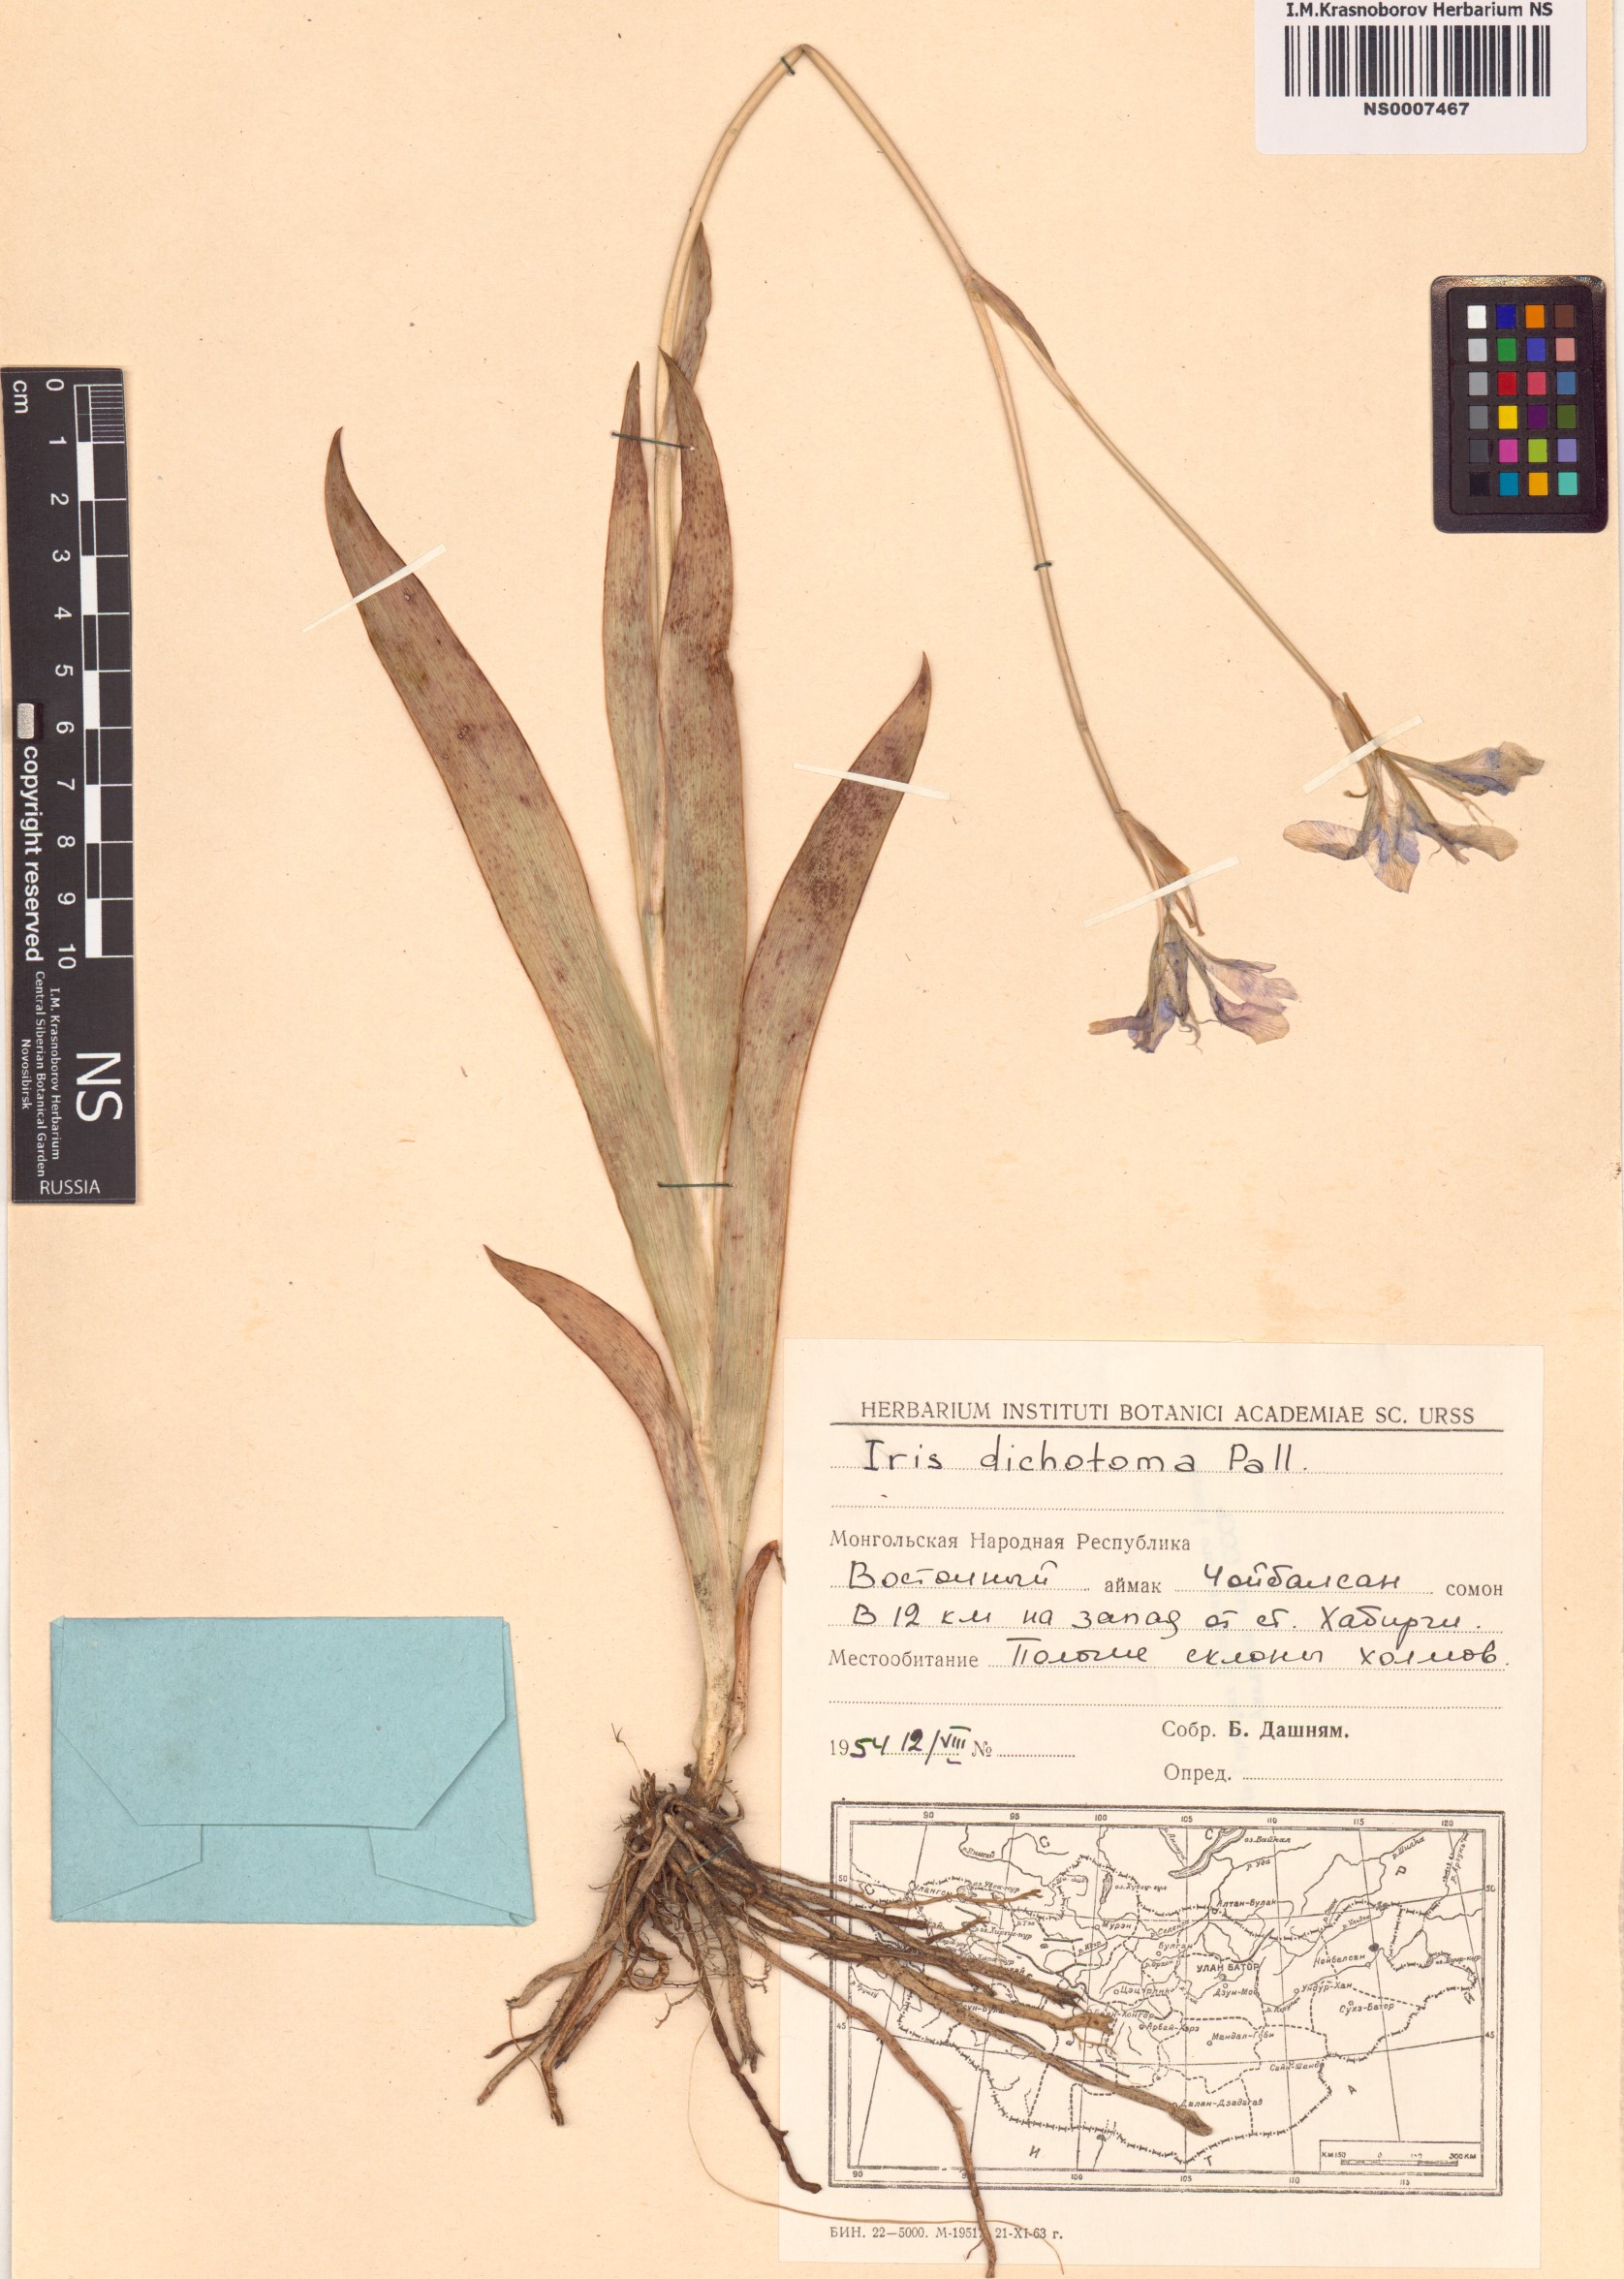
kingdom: Plantae
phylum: Tracheophyta
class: Liliopsida
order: Asparagales
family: Iridaceae
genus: Iris
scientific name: Iris dichotoma
